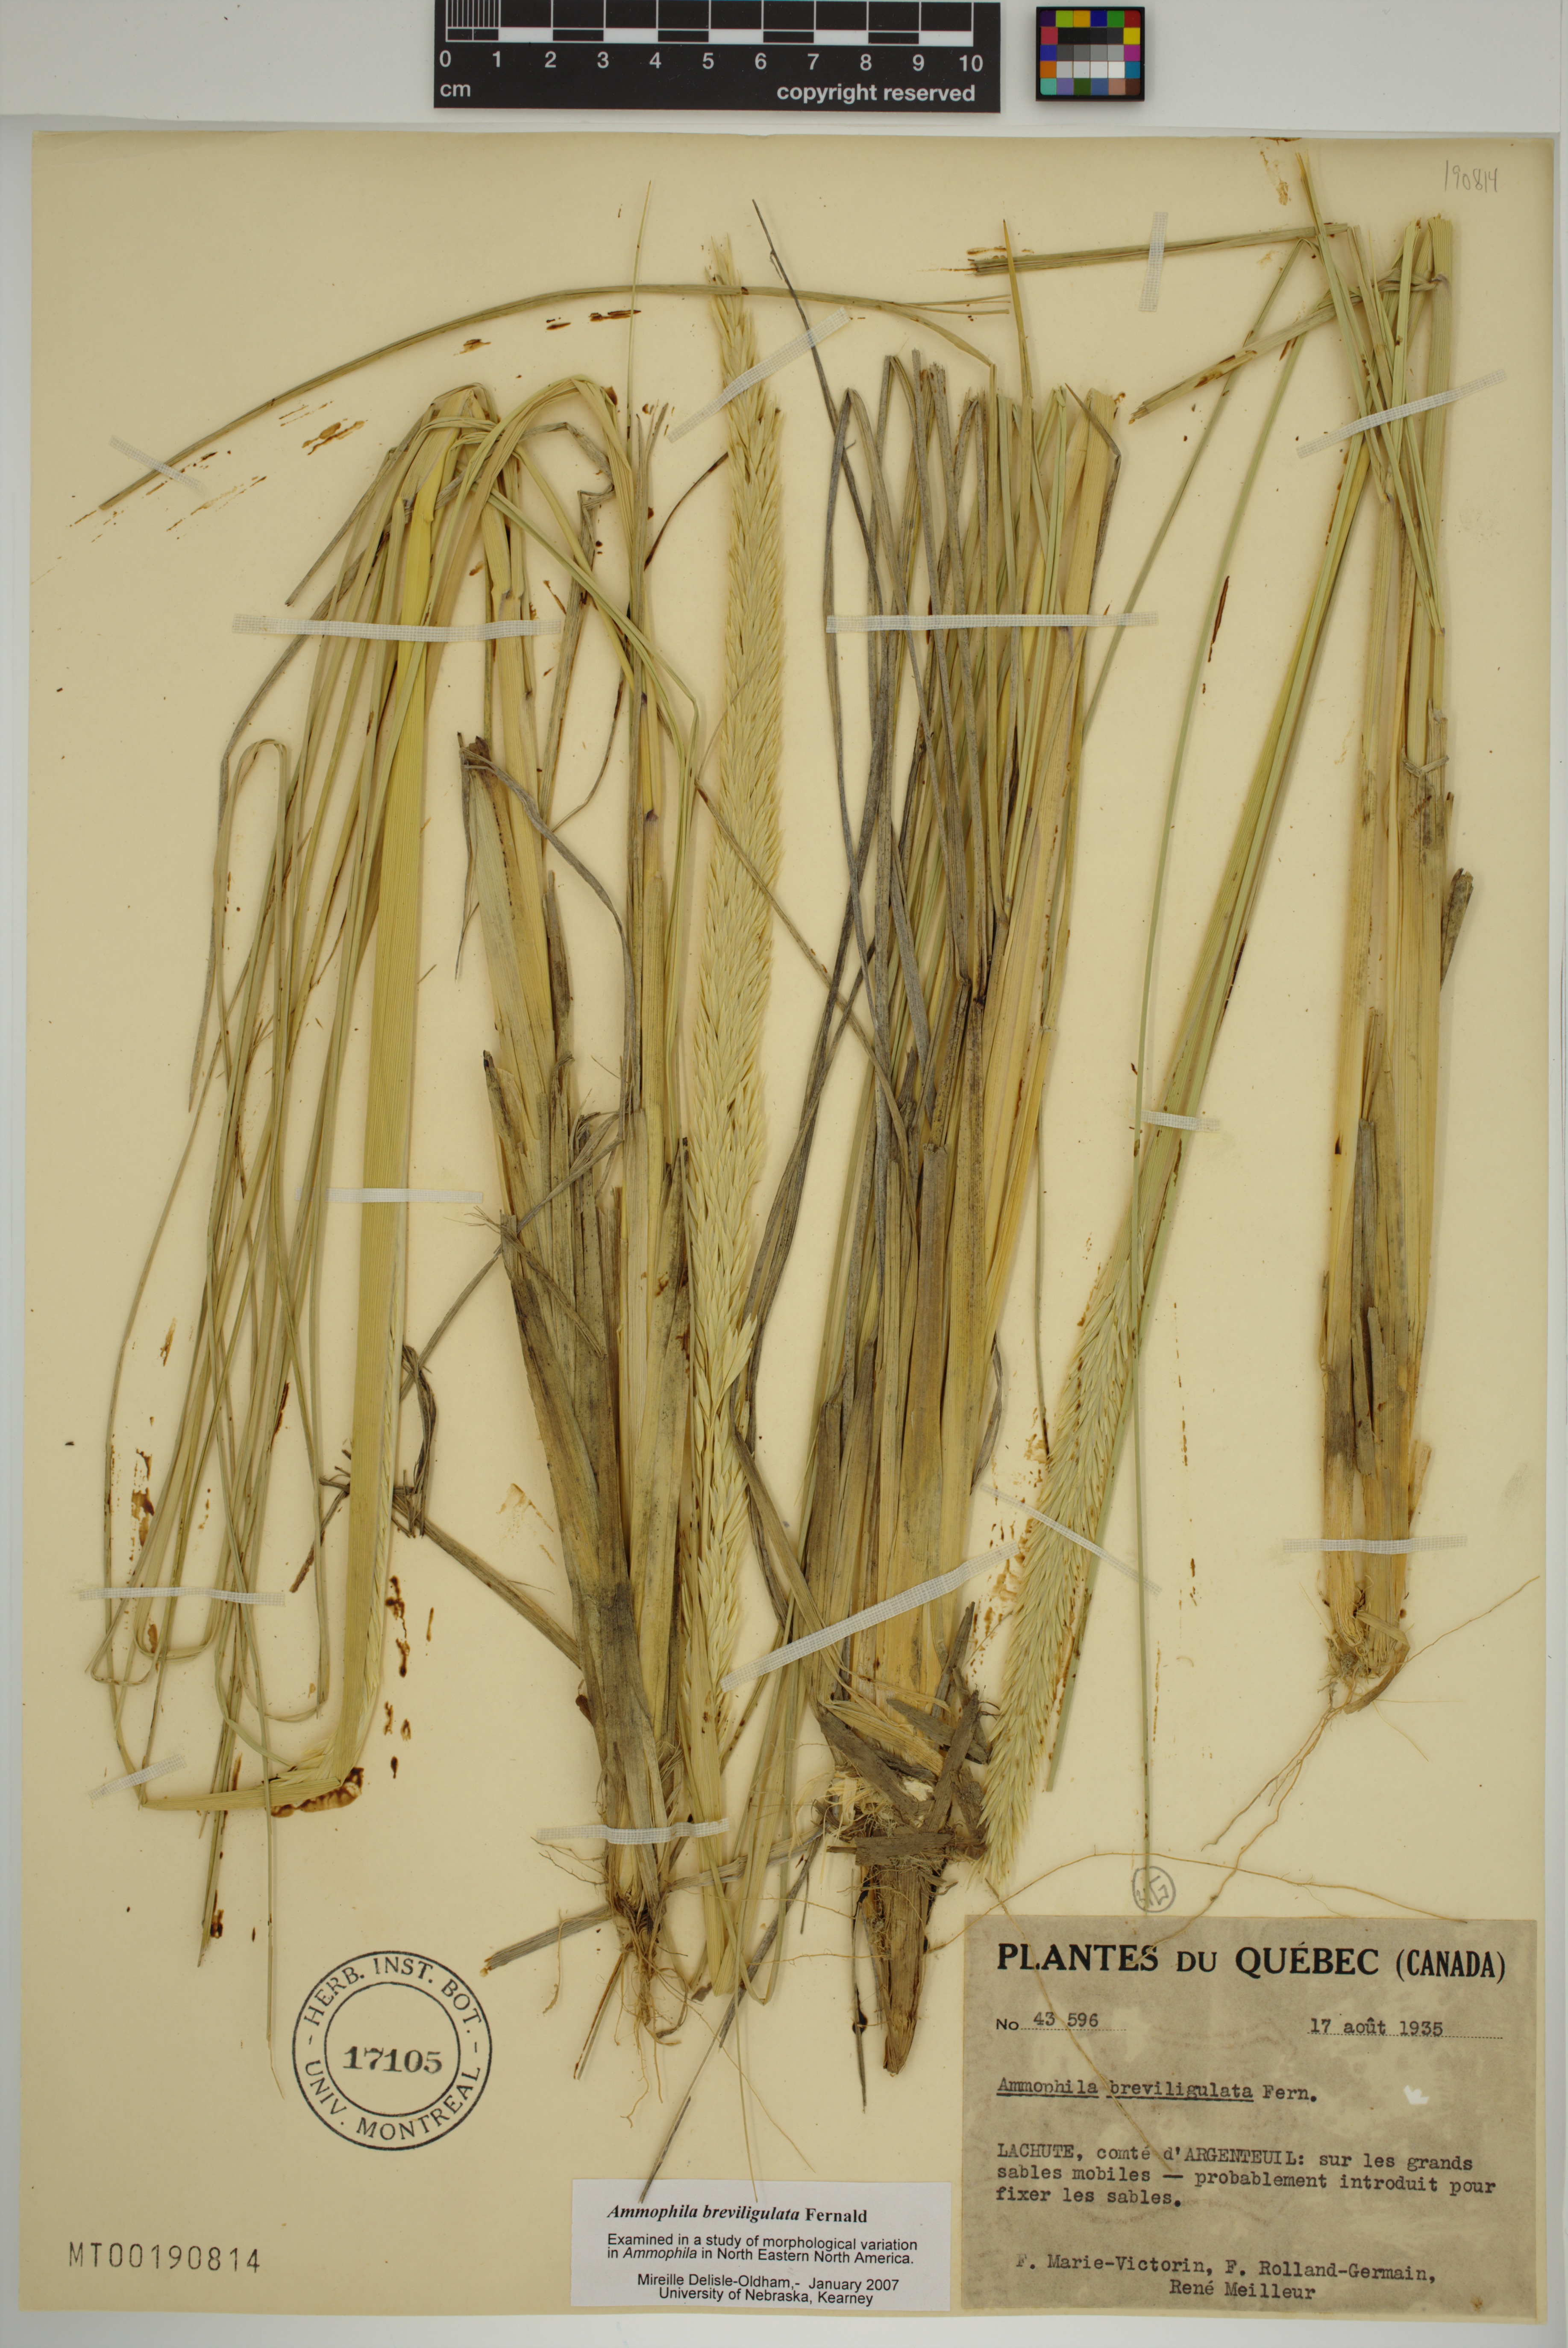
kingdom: Plantae
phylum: Tracheophyta
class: Liliopsida
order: Poales
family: Poaceae
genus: Calamagrostis
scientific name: Calamagrostis breviligulata
